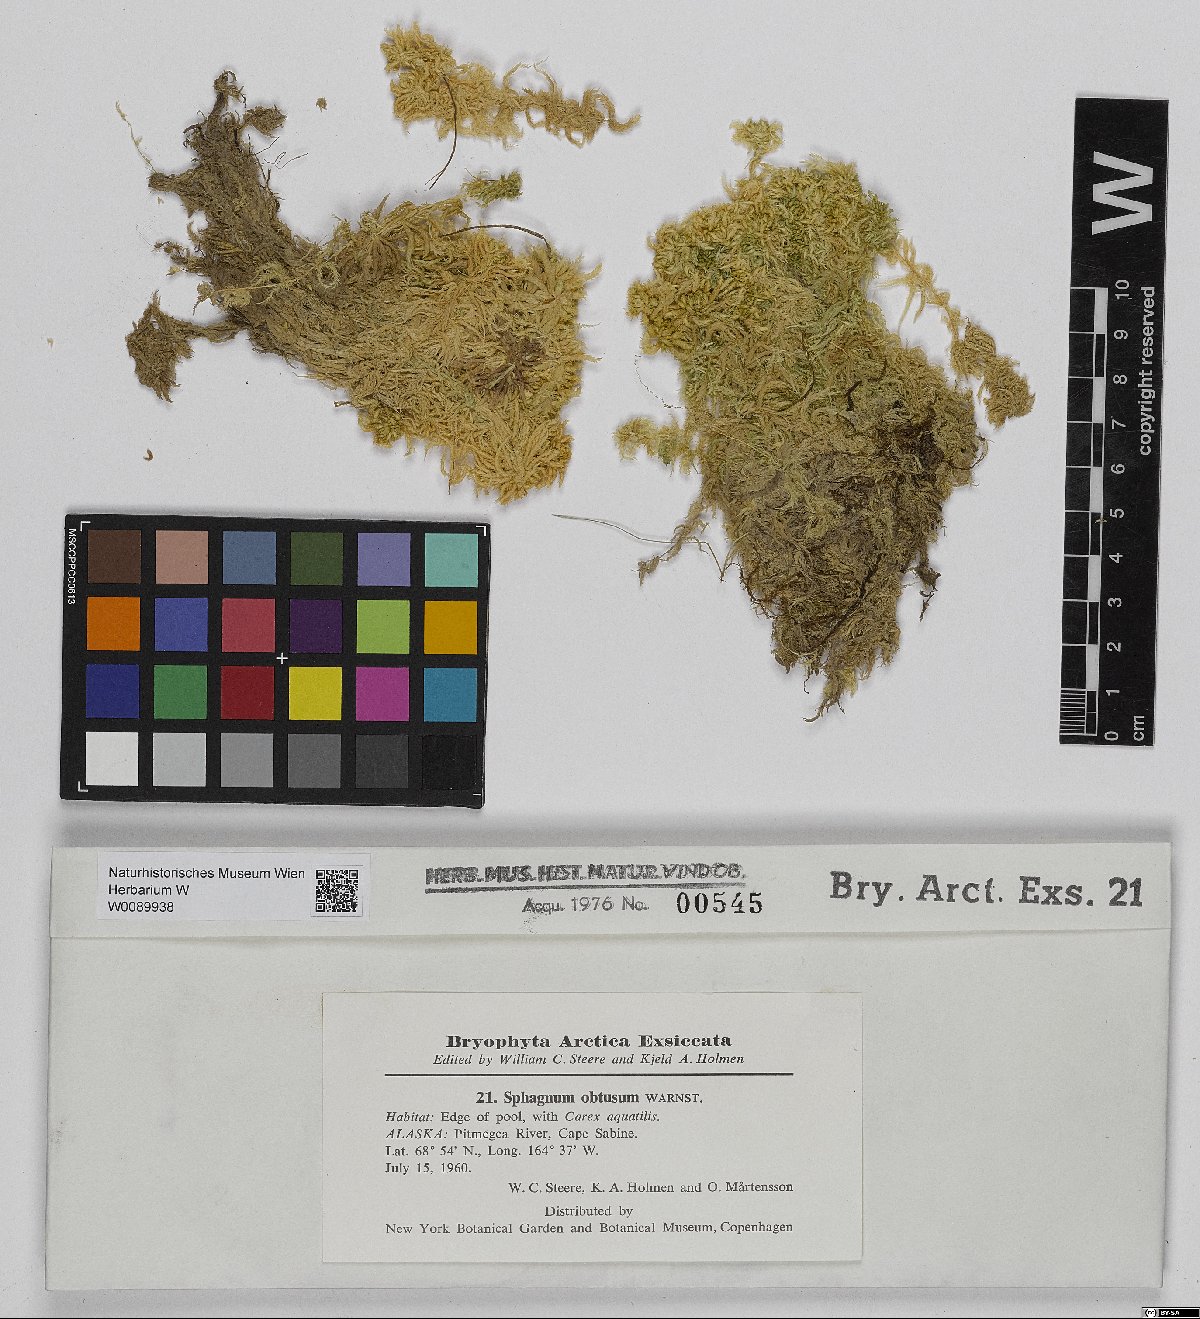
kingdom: Plantae
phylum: Bryophyta
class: Sphagnopsida
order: Sphagnales
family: Sphagnaceae
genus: Sphagnum
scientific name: Sphagnum obtusum
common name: Obtuse peat moss
